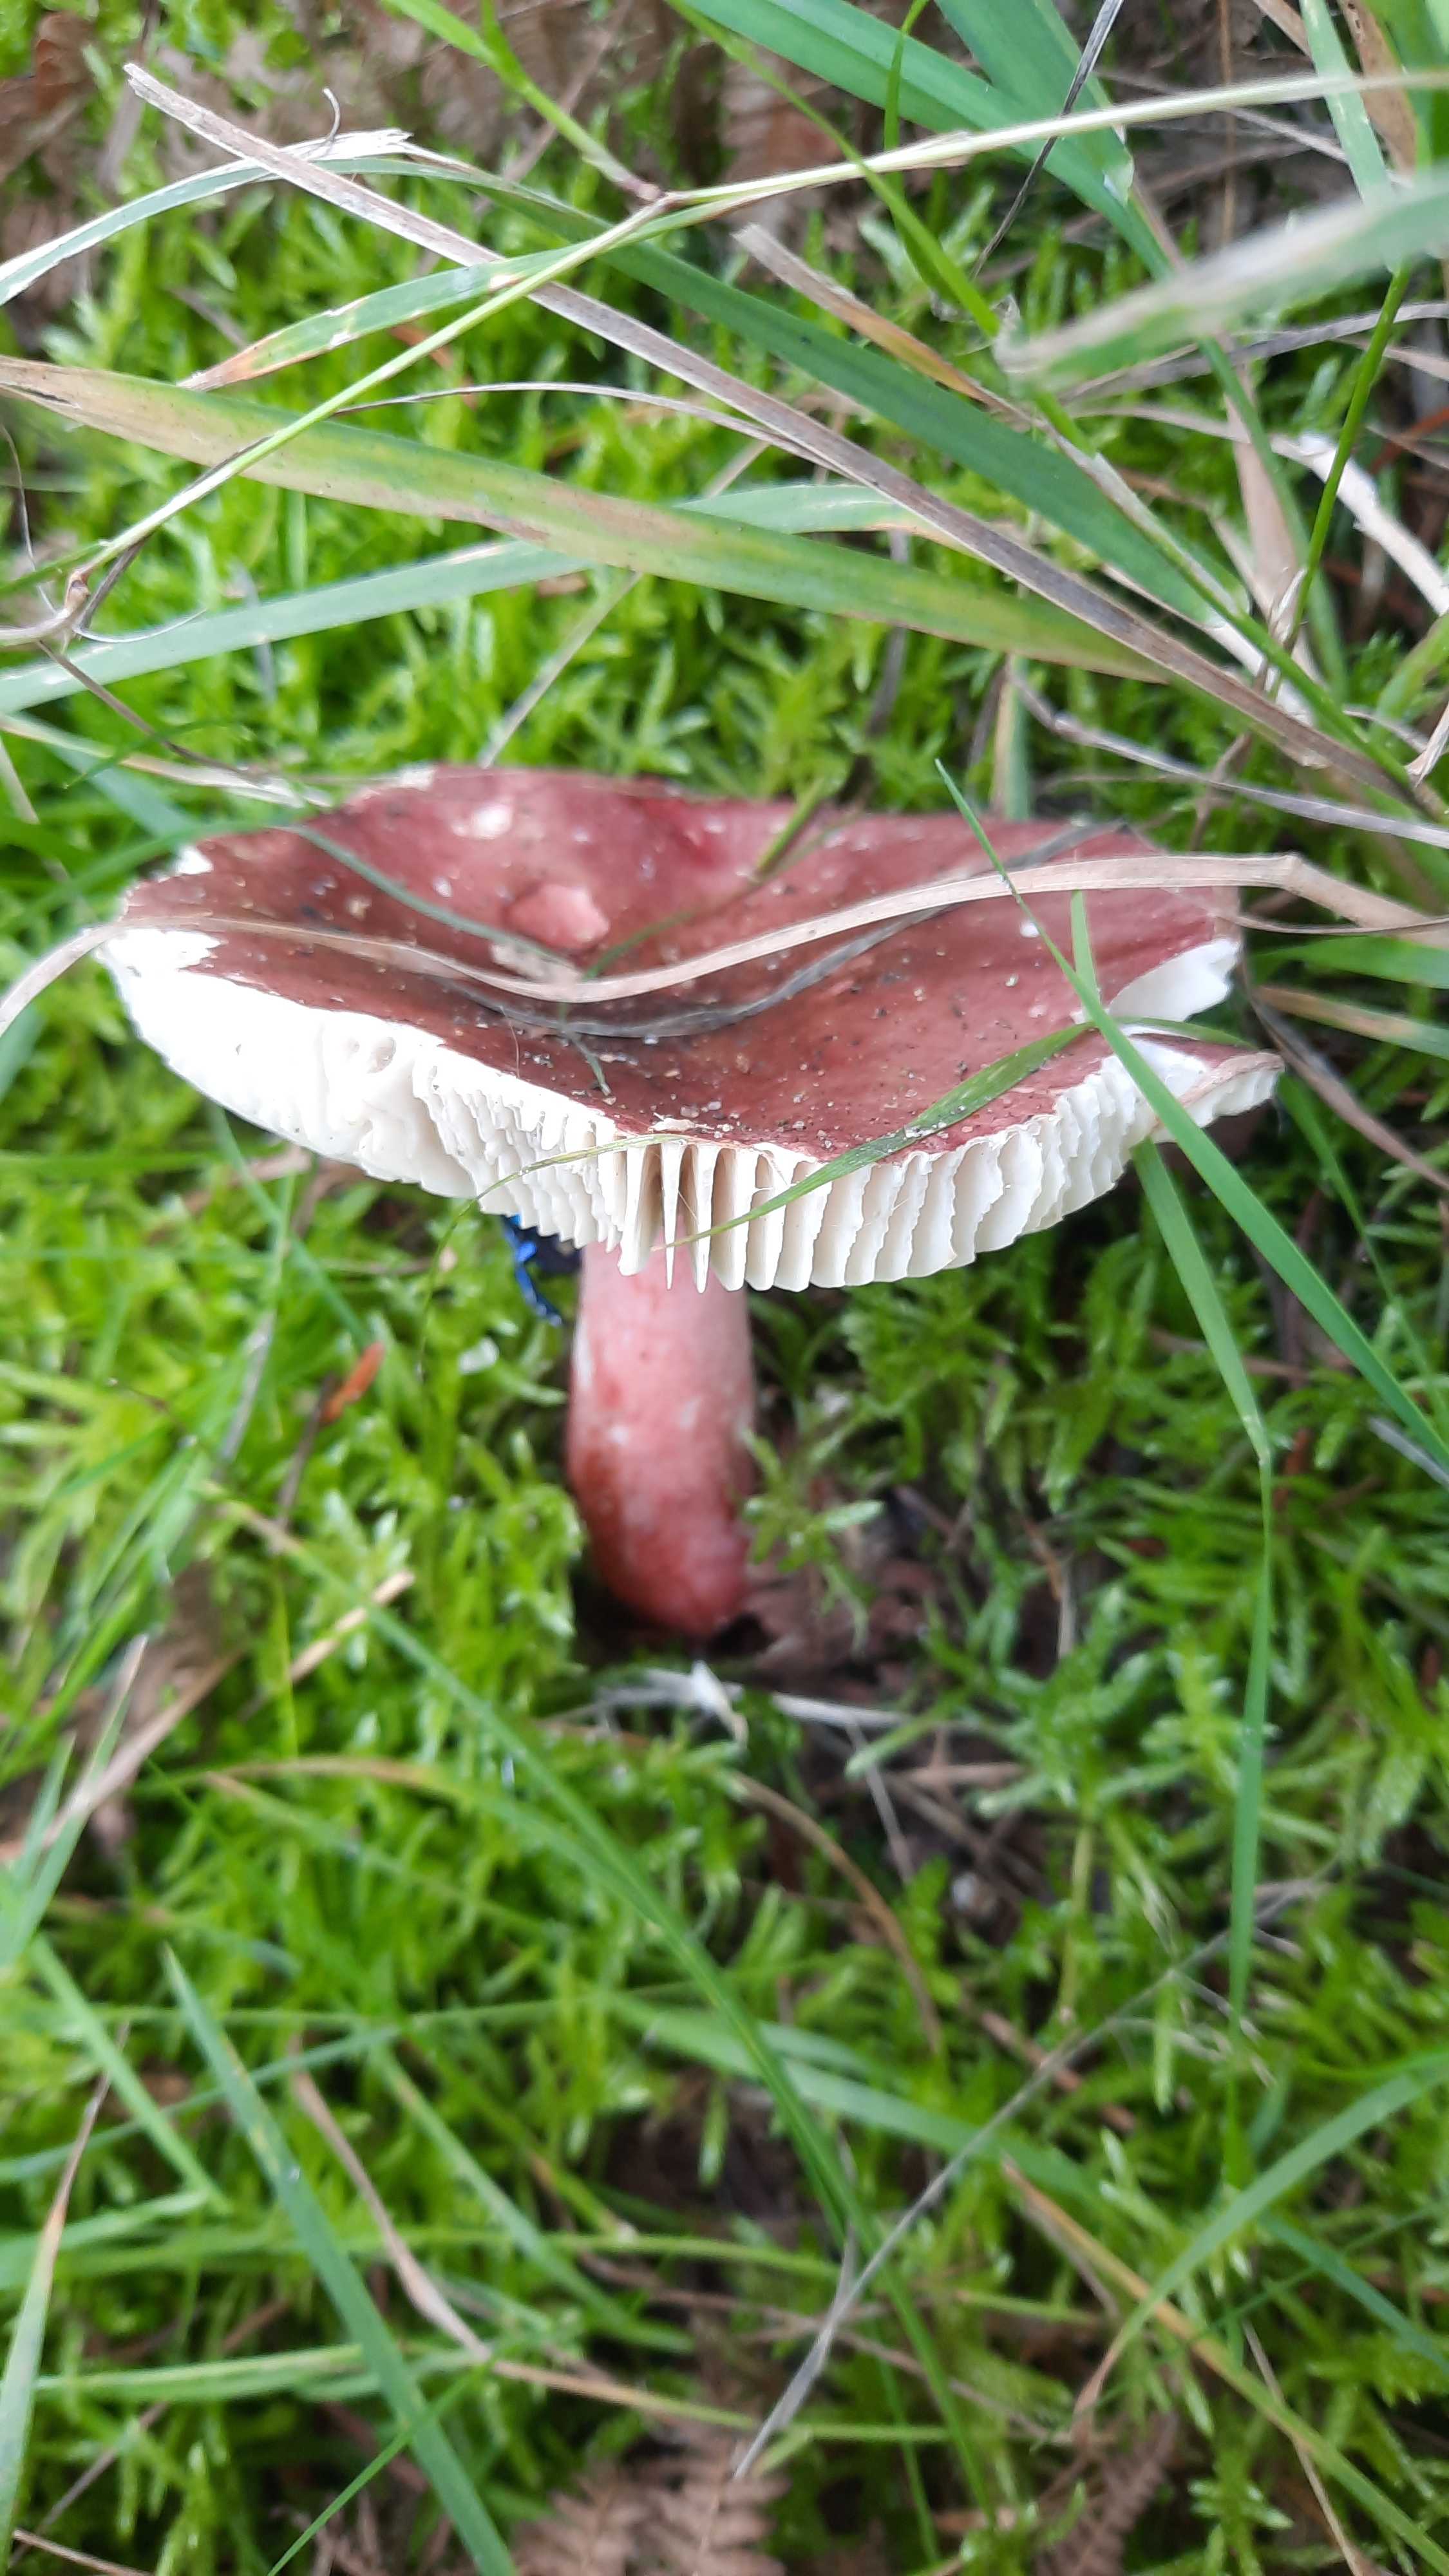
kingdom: Fungi
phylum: Basidiomycota
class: Agaricomycetes
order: Russulales
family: Russulaceae
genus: Russula
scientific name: Russula queletii
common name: Quélets skørhat
